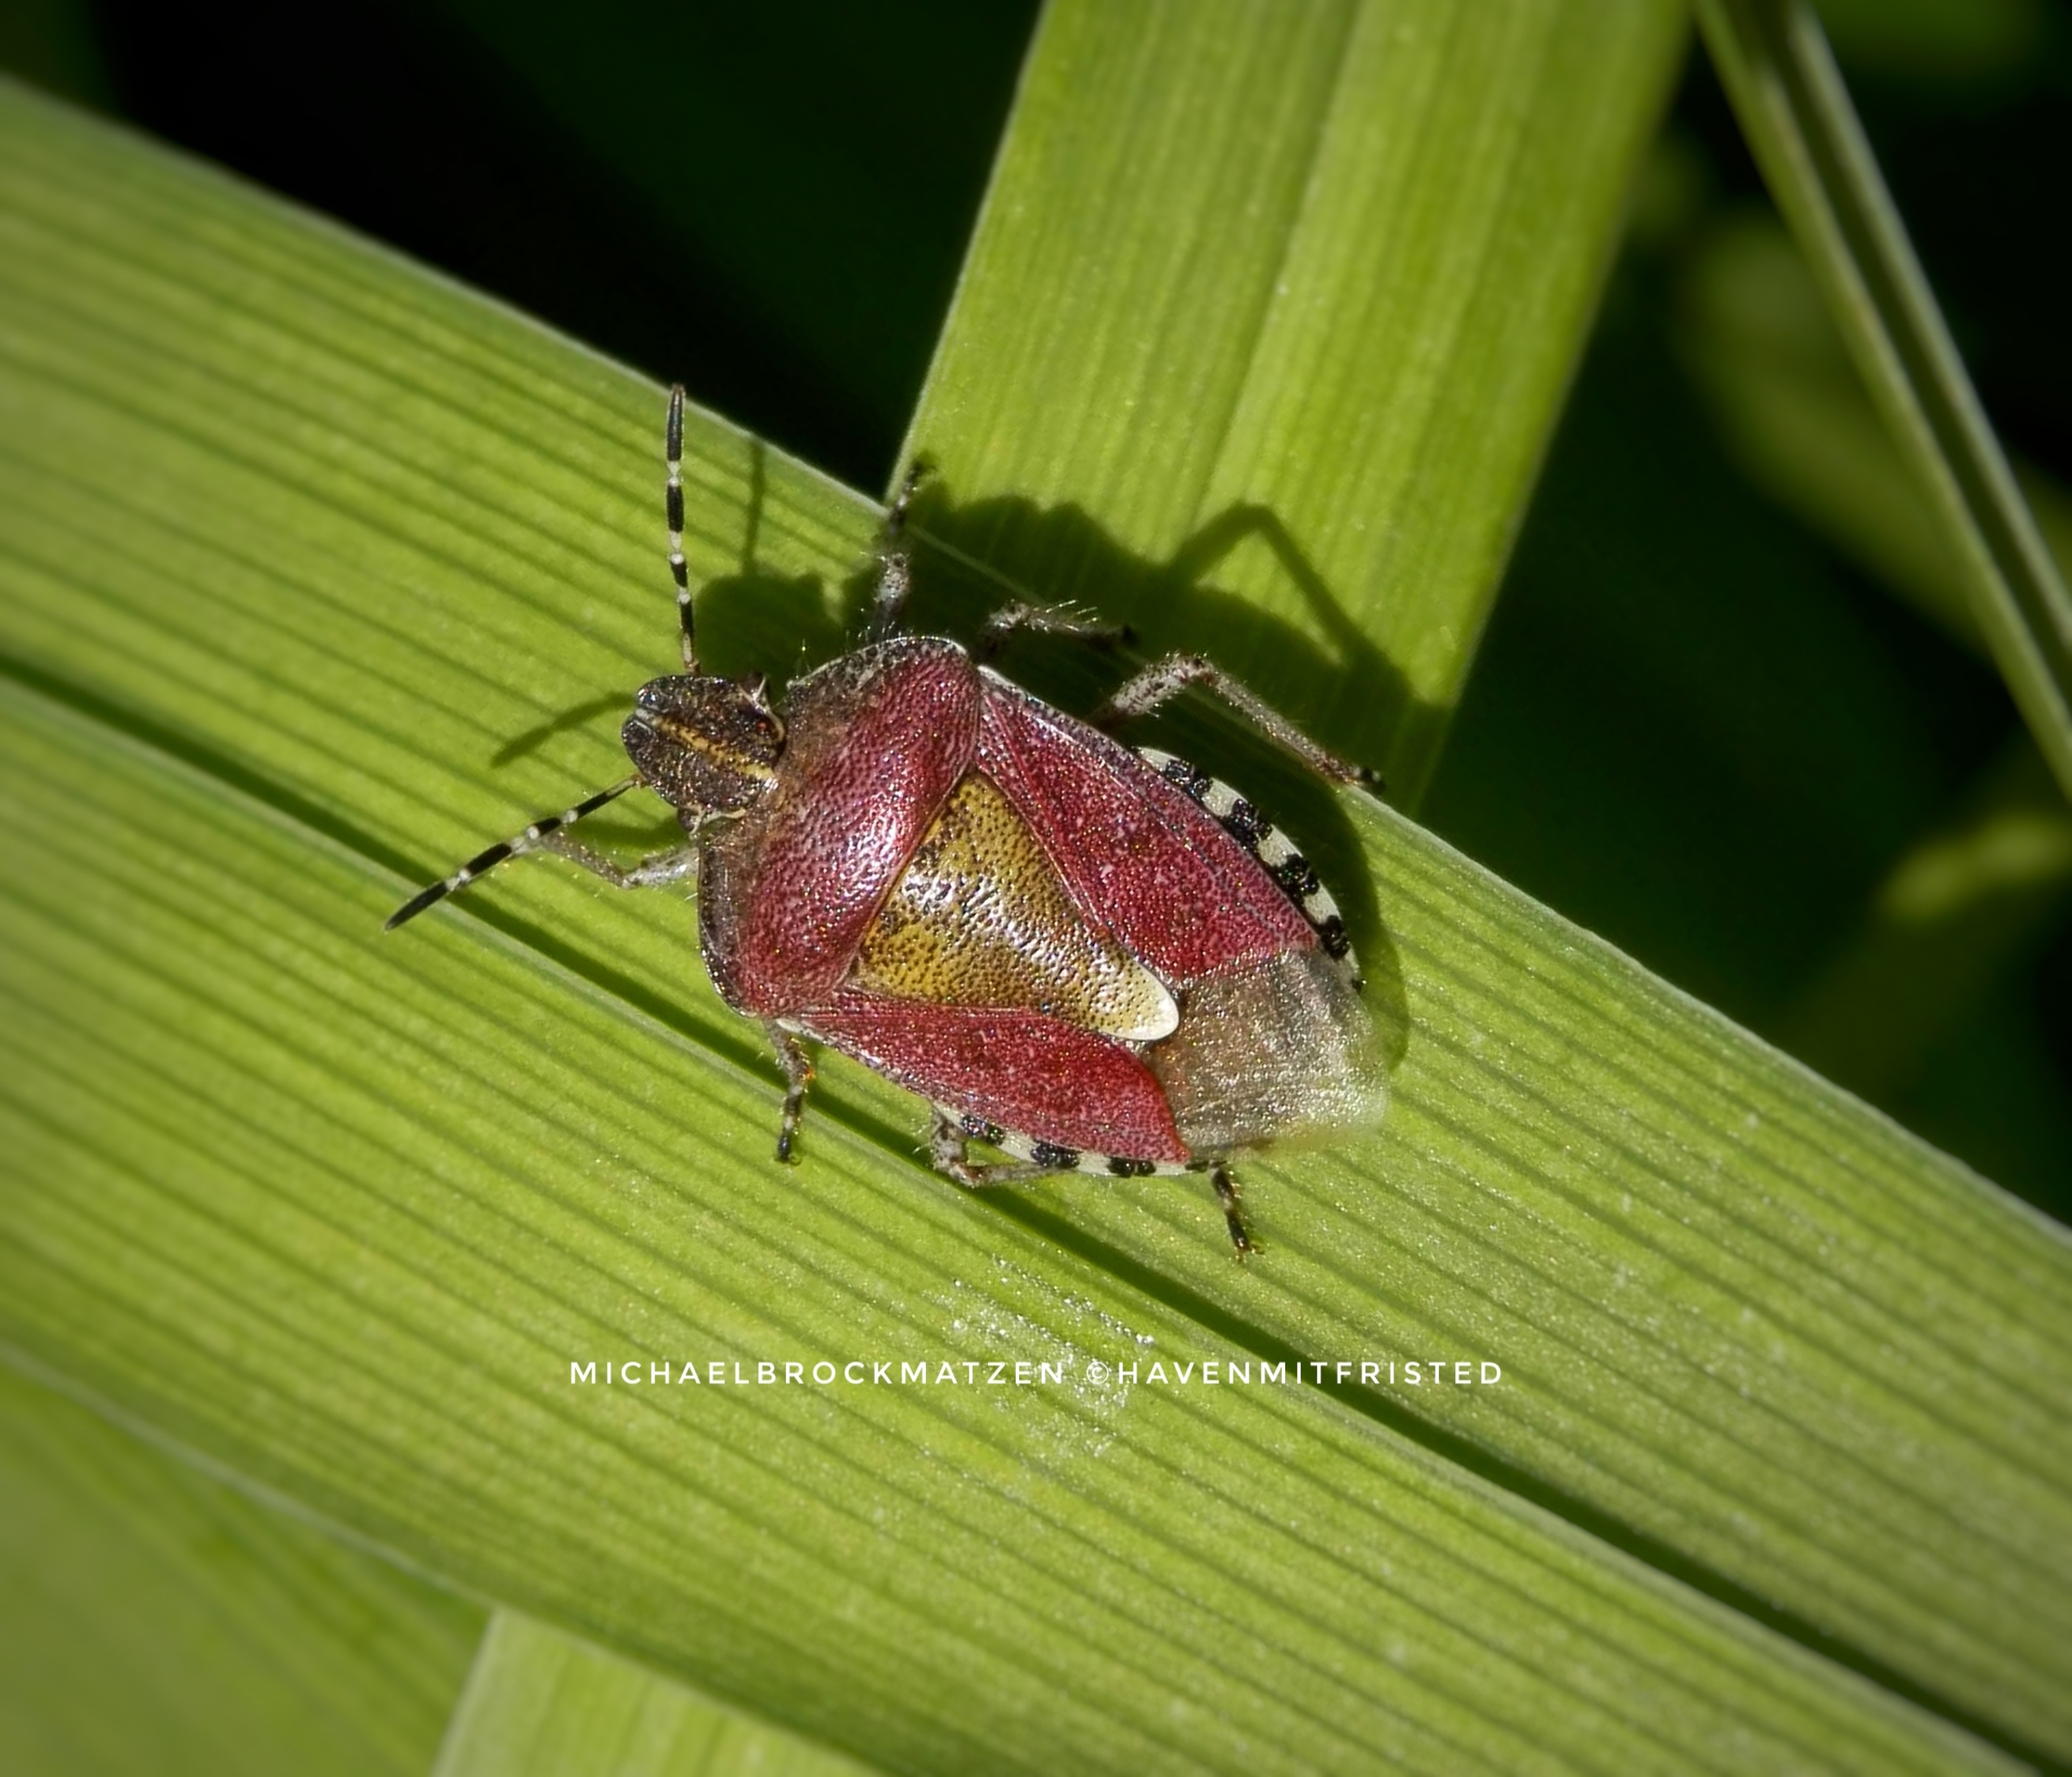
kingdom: Animalia
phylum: Arthropoda
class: Insecta
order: Hemiptera
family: Pentatomidae
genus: Dolycoris
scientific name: Dolycoris baccarum
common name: Almindelig bærtæge
